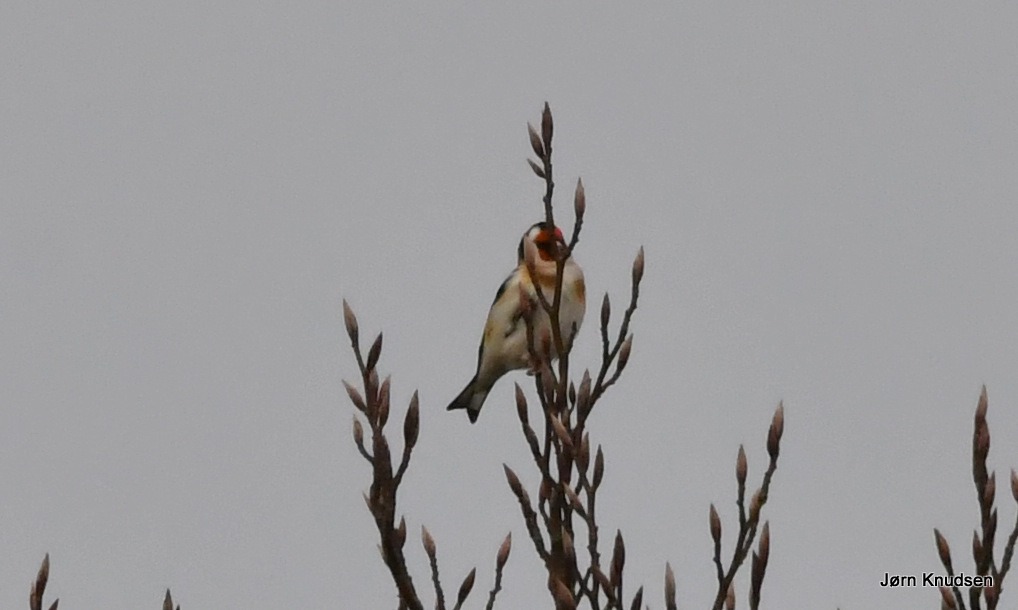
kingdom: Animalia
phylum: Chordata
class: Aves
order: Passeriformes
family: Fringillidae
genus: Carduelis
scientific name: Carduelis carduelis
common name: Stillits
